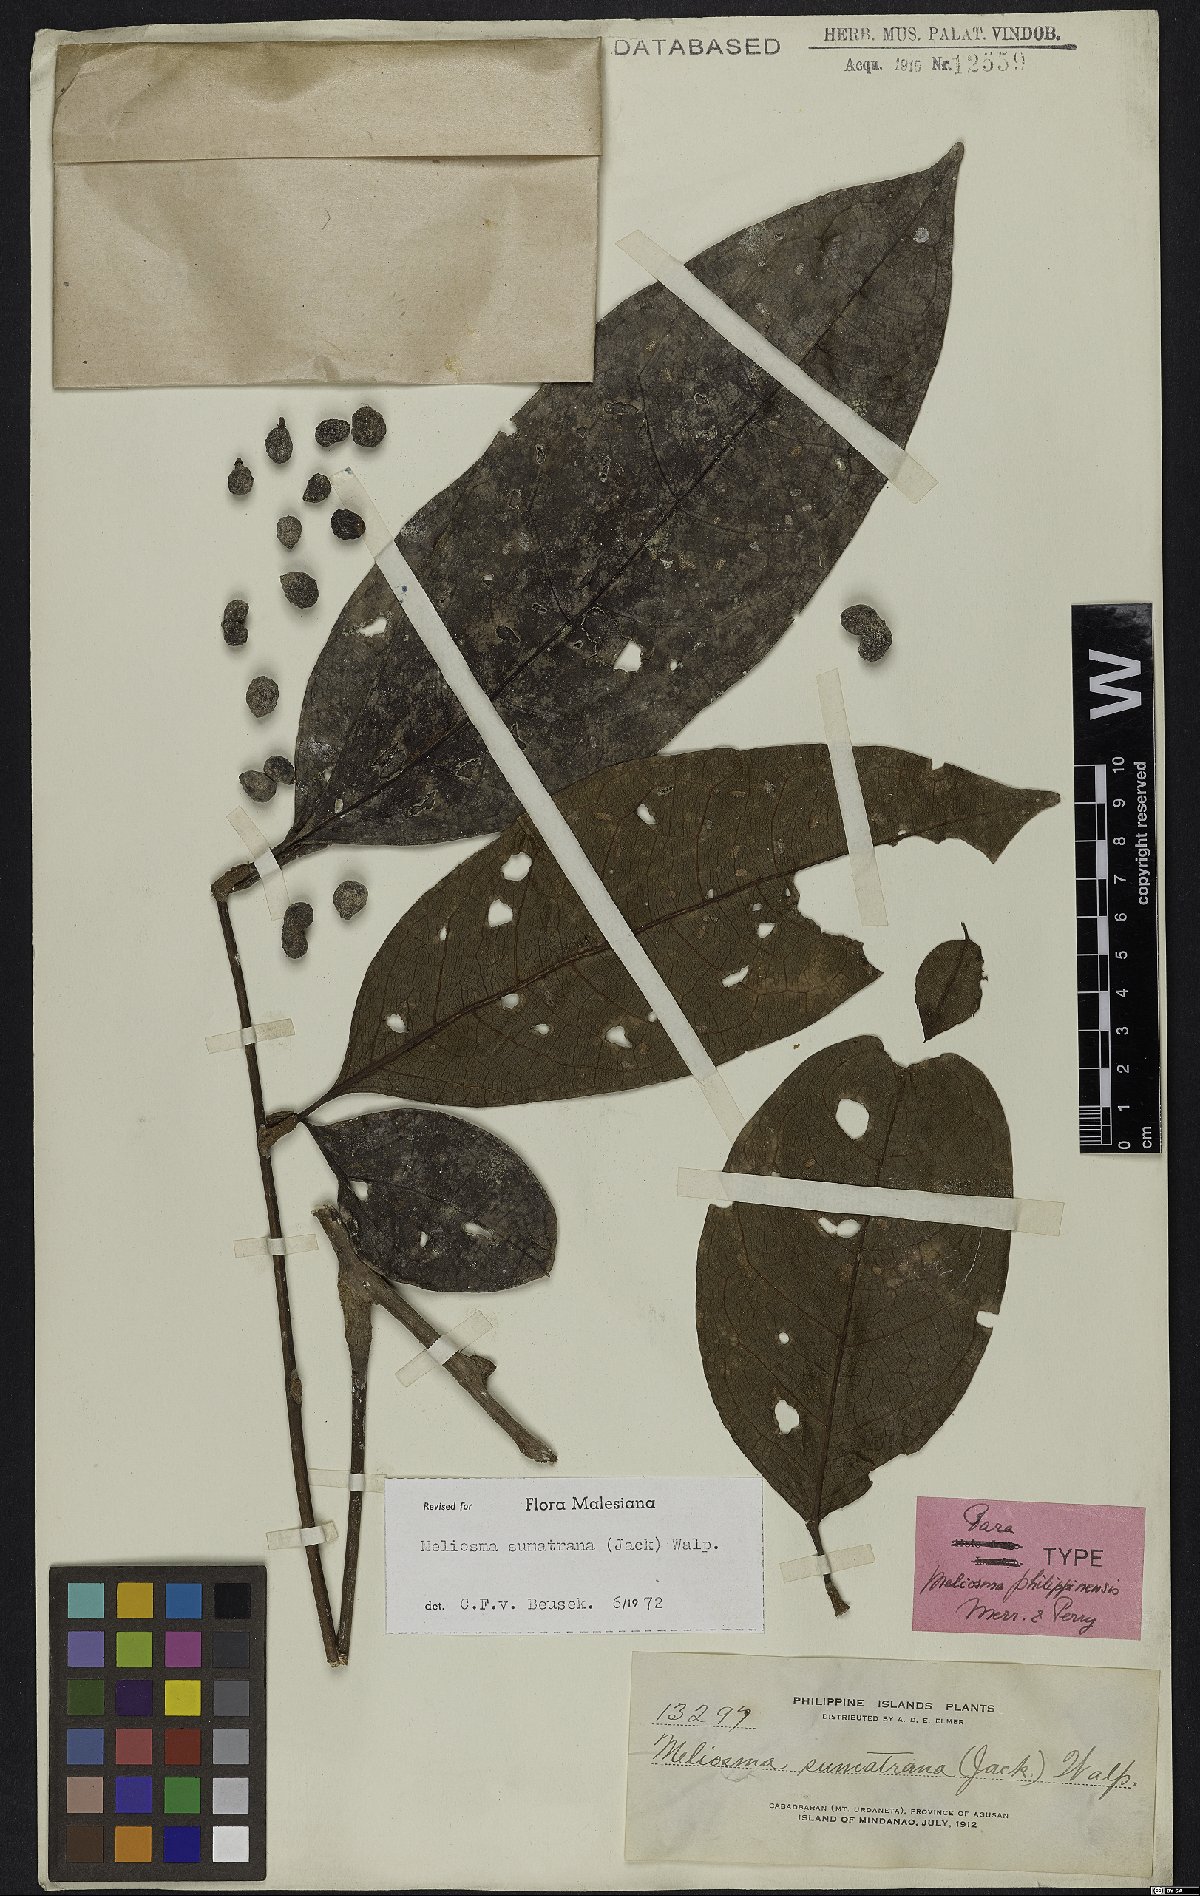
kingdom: Plantae
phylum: Tracheophyta
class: Magnoliopsida
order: Proteales
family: Sabiaceae
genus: Meliosma
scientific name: Meliosma sumatrana
